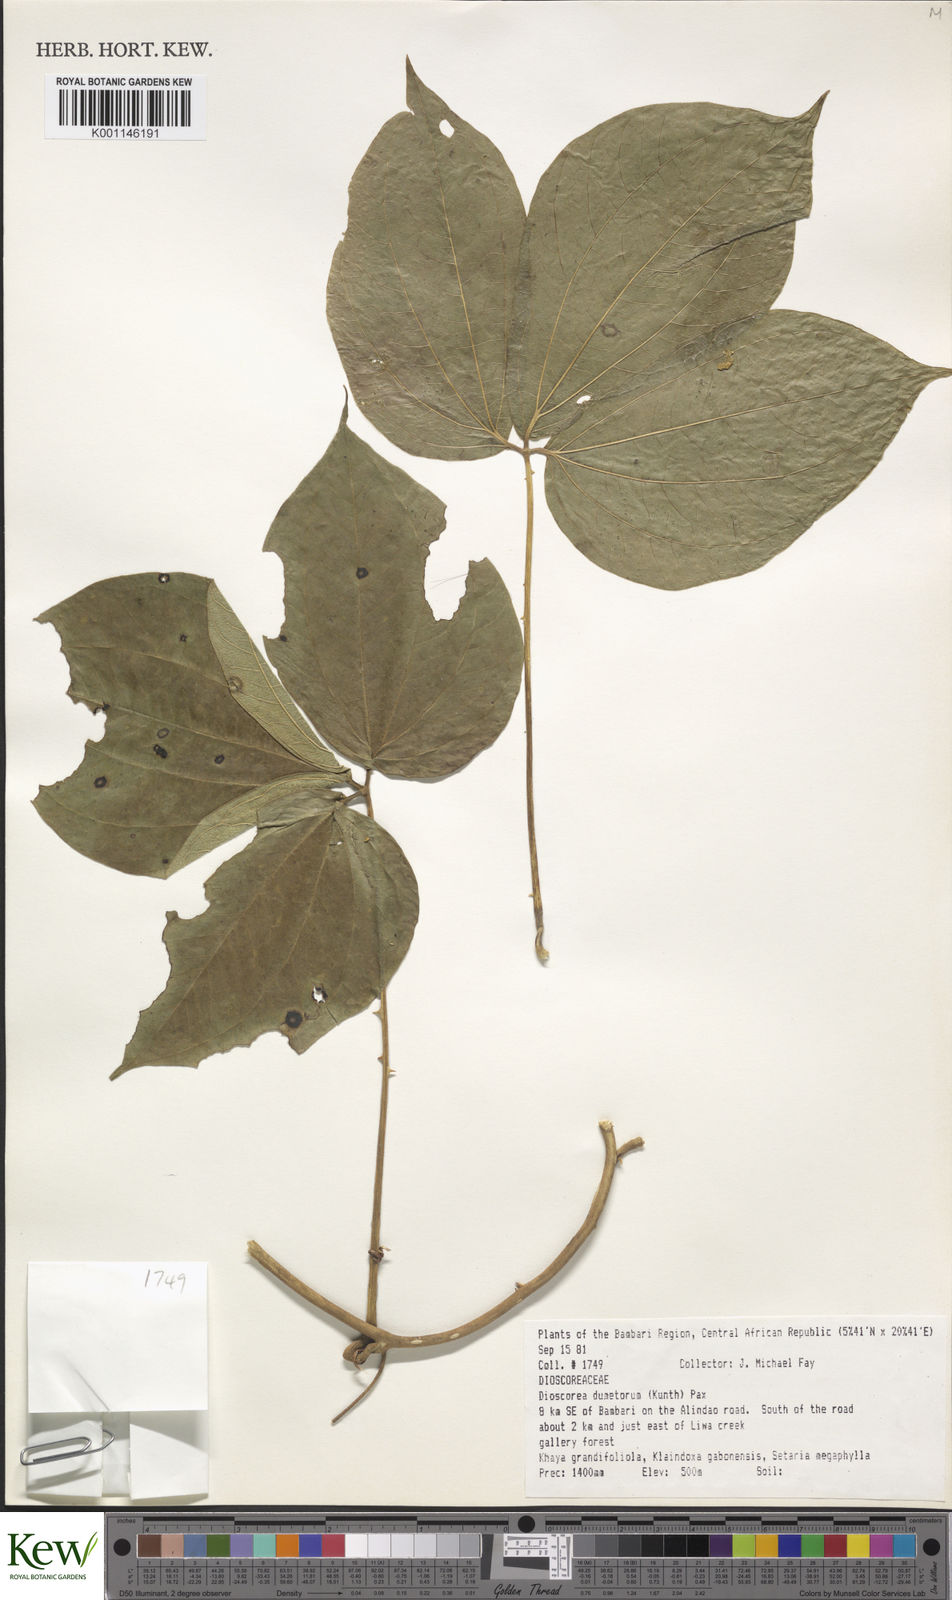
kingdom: Plantae
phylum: Tracheophyta
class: Liliopsida
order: Dioscoreales
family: Dioscoreaceae
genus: Dioscorea
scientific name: Dioscorea dumetorum
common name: African bitter yam
